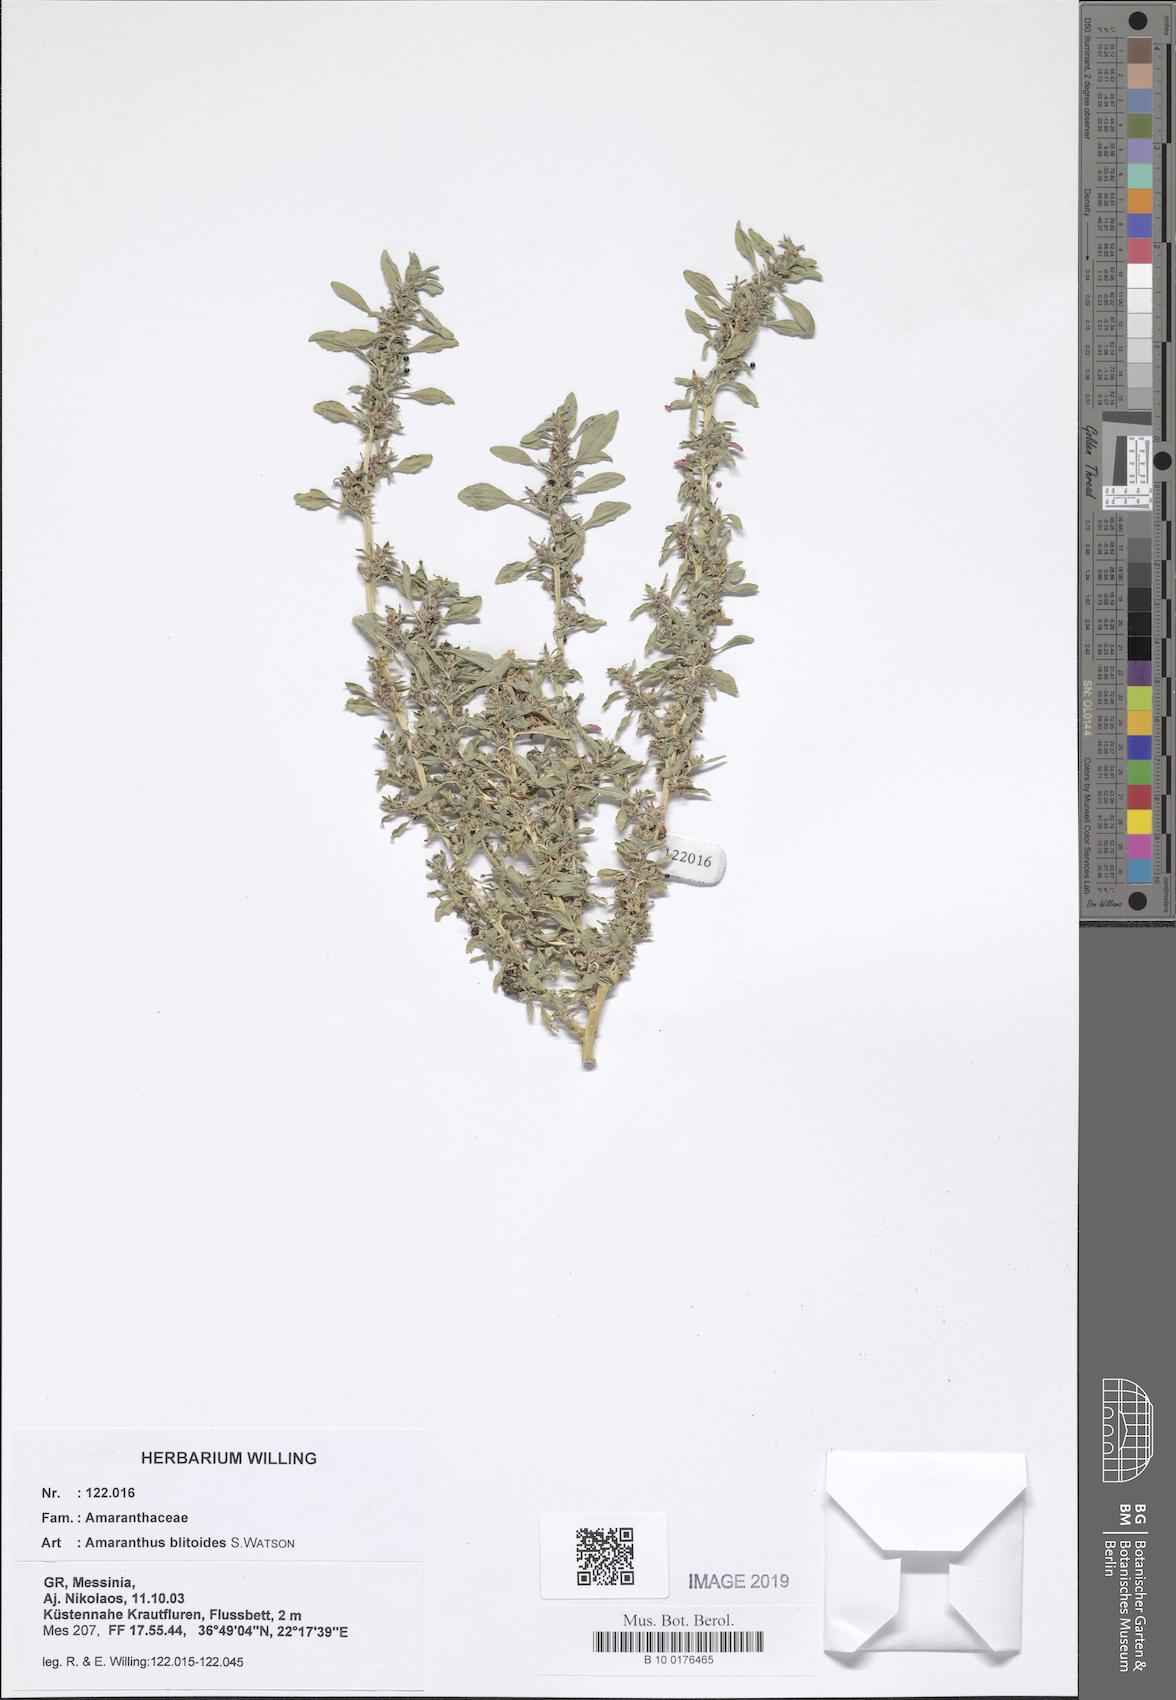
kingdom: Plantae
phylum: Tracheophyta
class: Magnoliopsida
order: Caryophyllales
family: Amaranthaceae
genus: Amaranthus
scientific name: Amaranthus blitoides
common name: Prostrate pigweed
